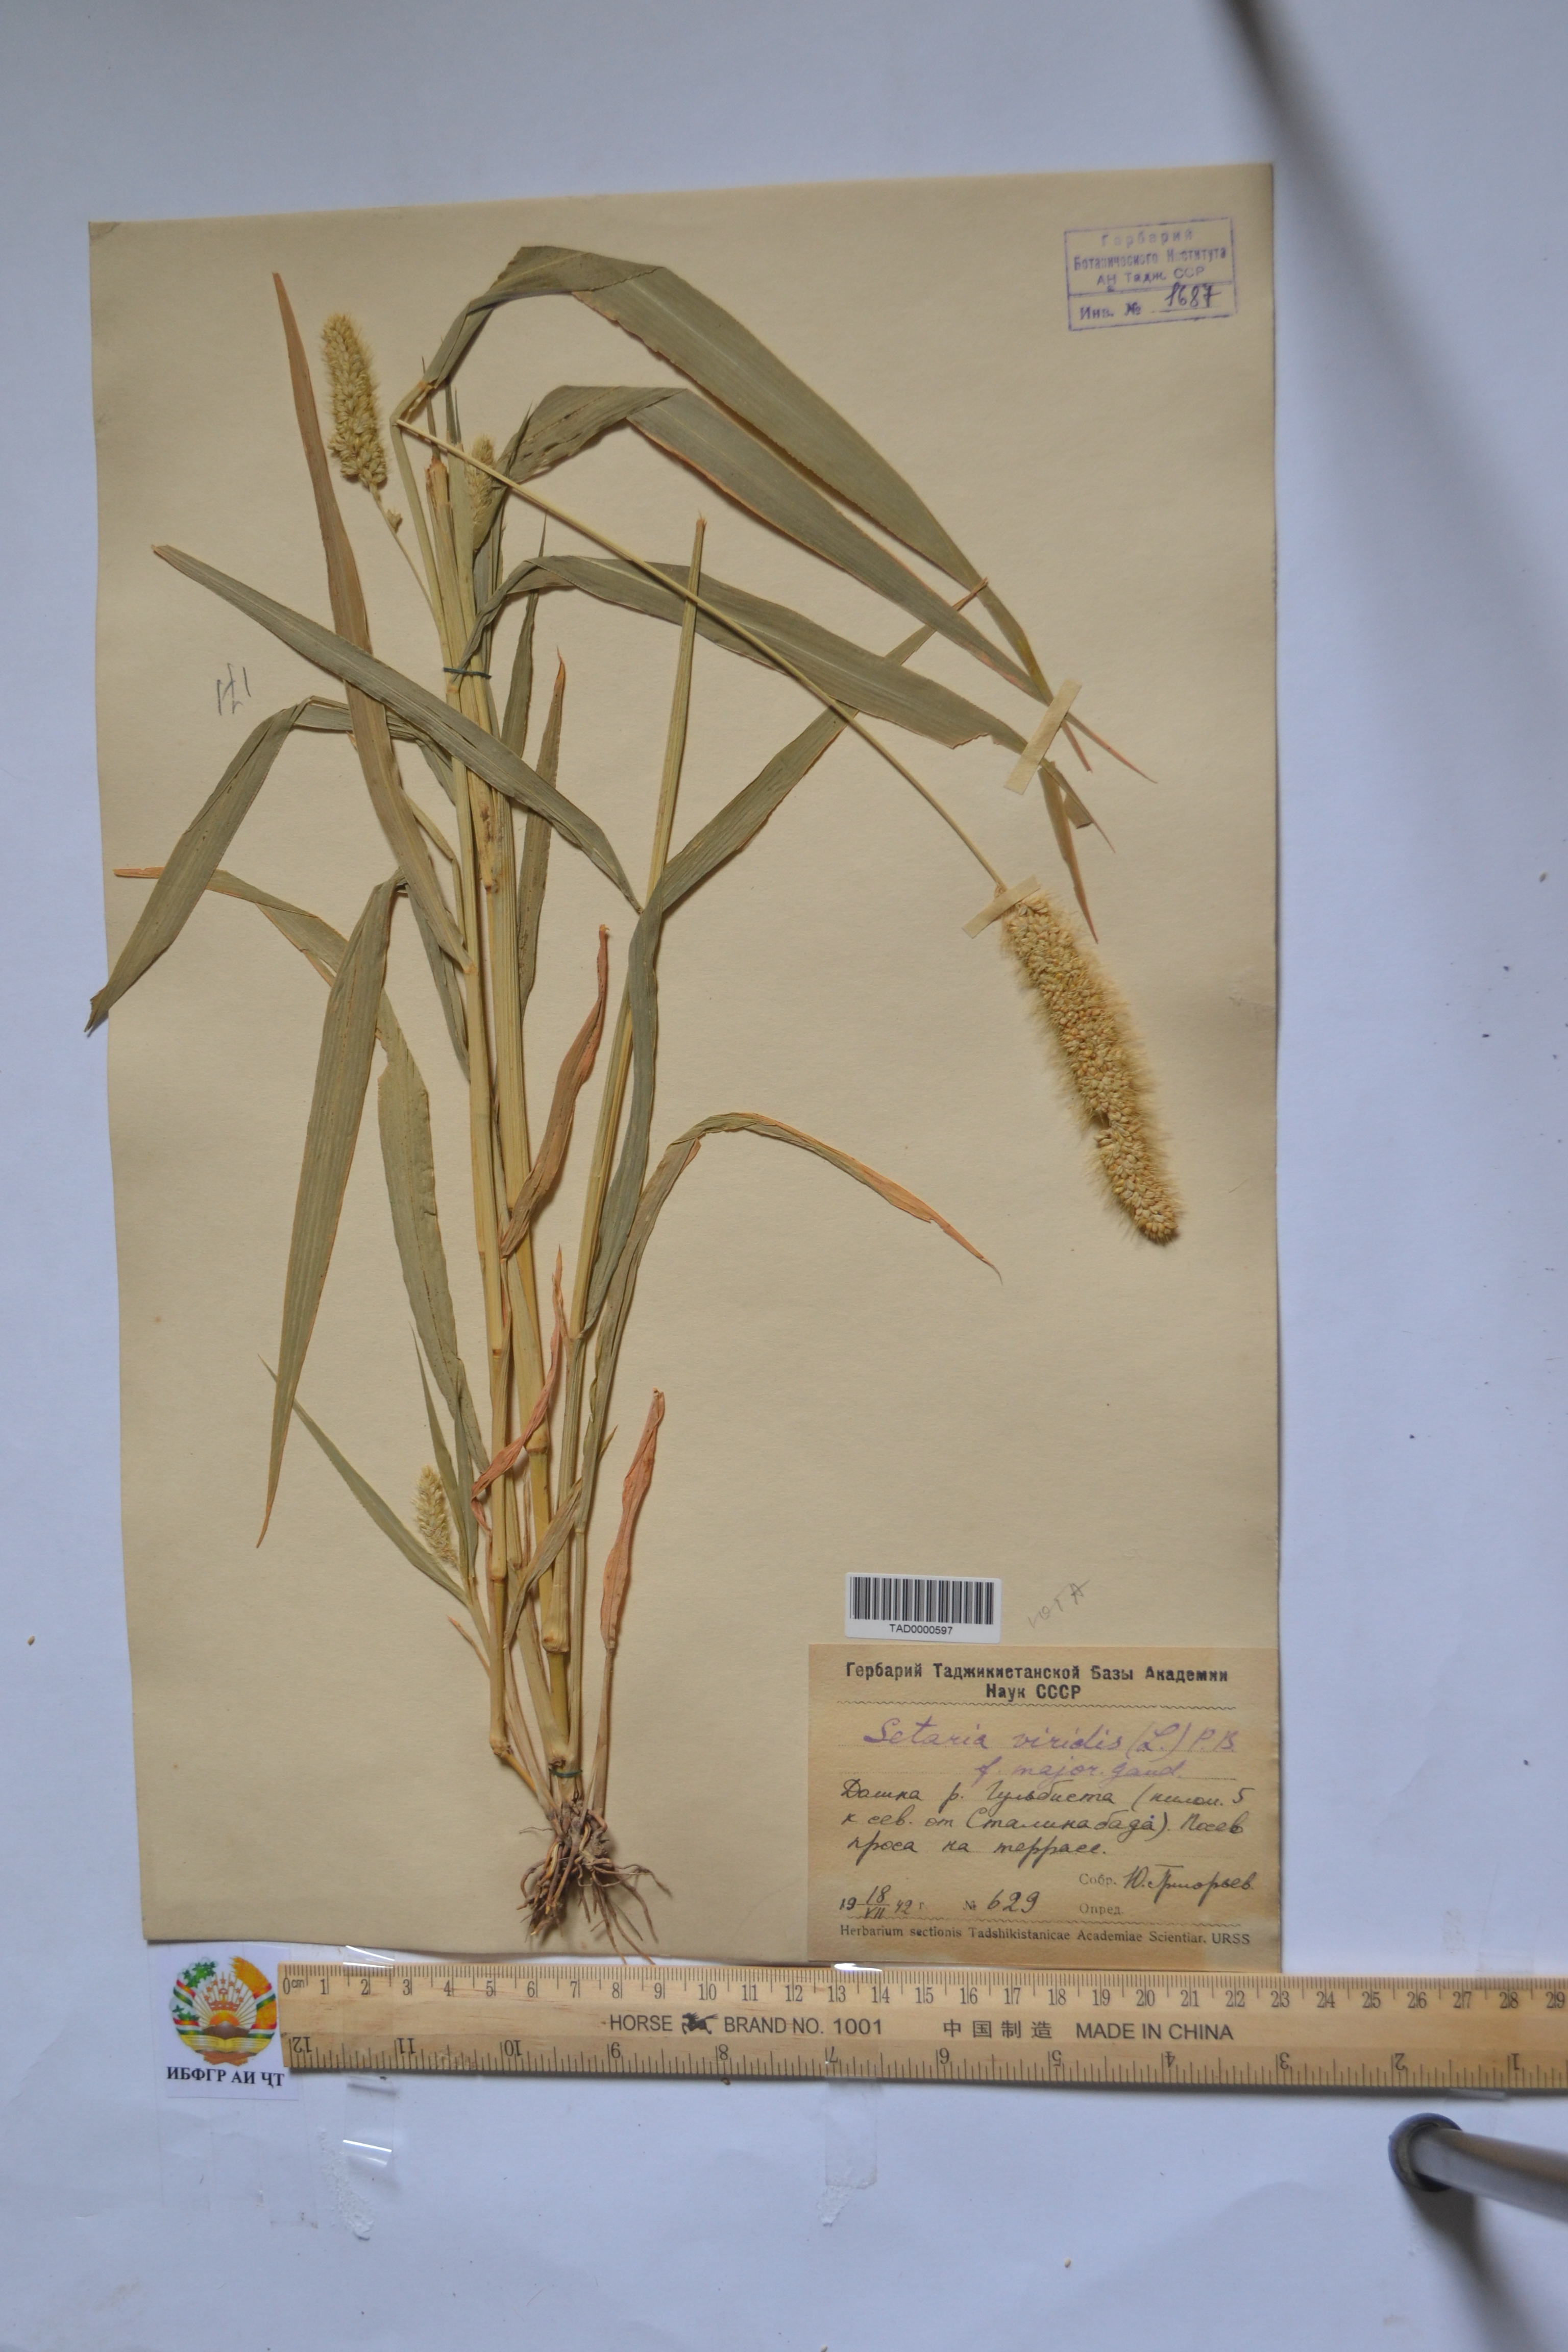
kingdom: Plantae
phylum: Tracheophyta
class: Liliopsida
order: Poales
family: Poaceae
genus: Setaria
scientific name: Setaria viridis
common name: Green bristlegrass
